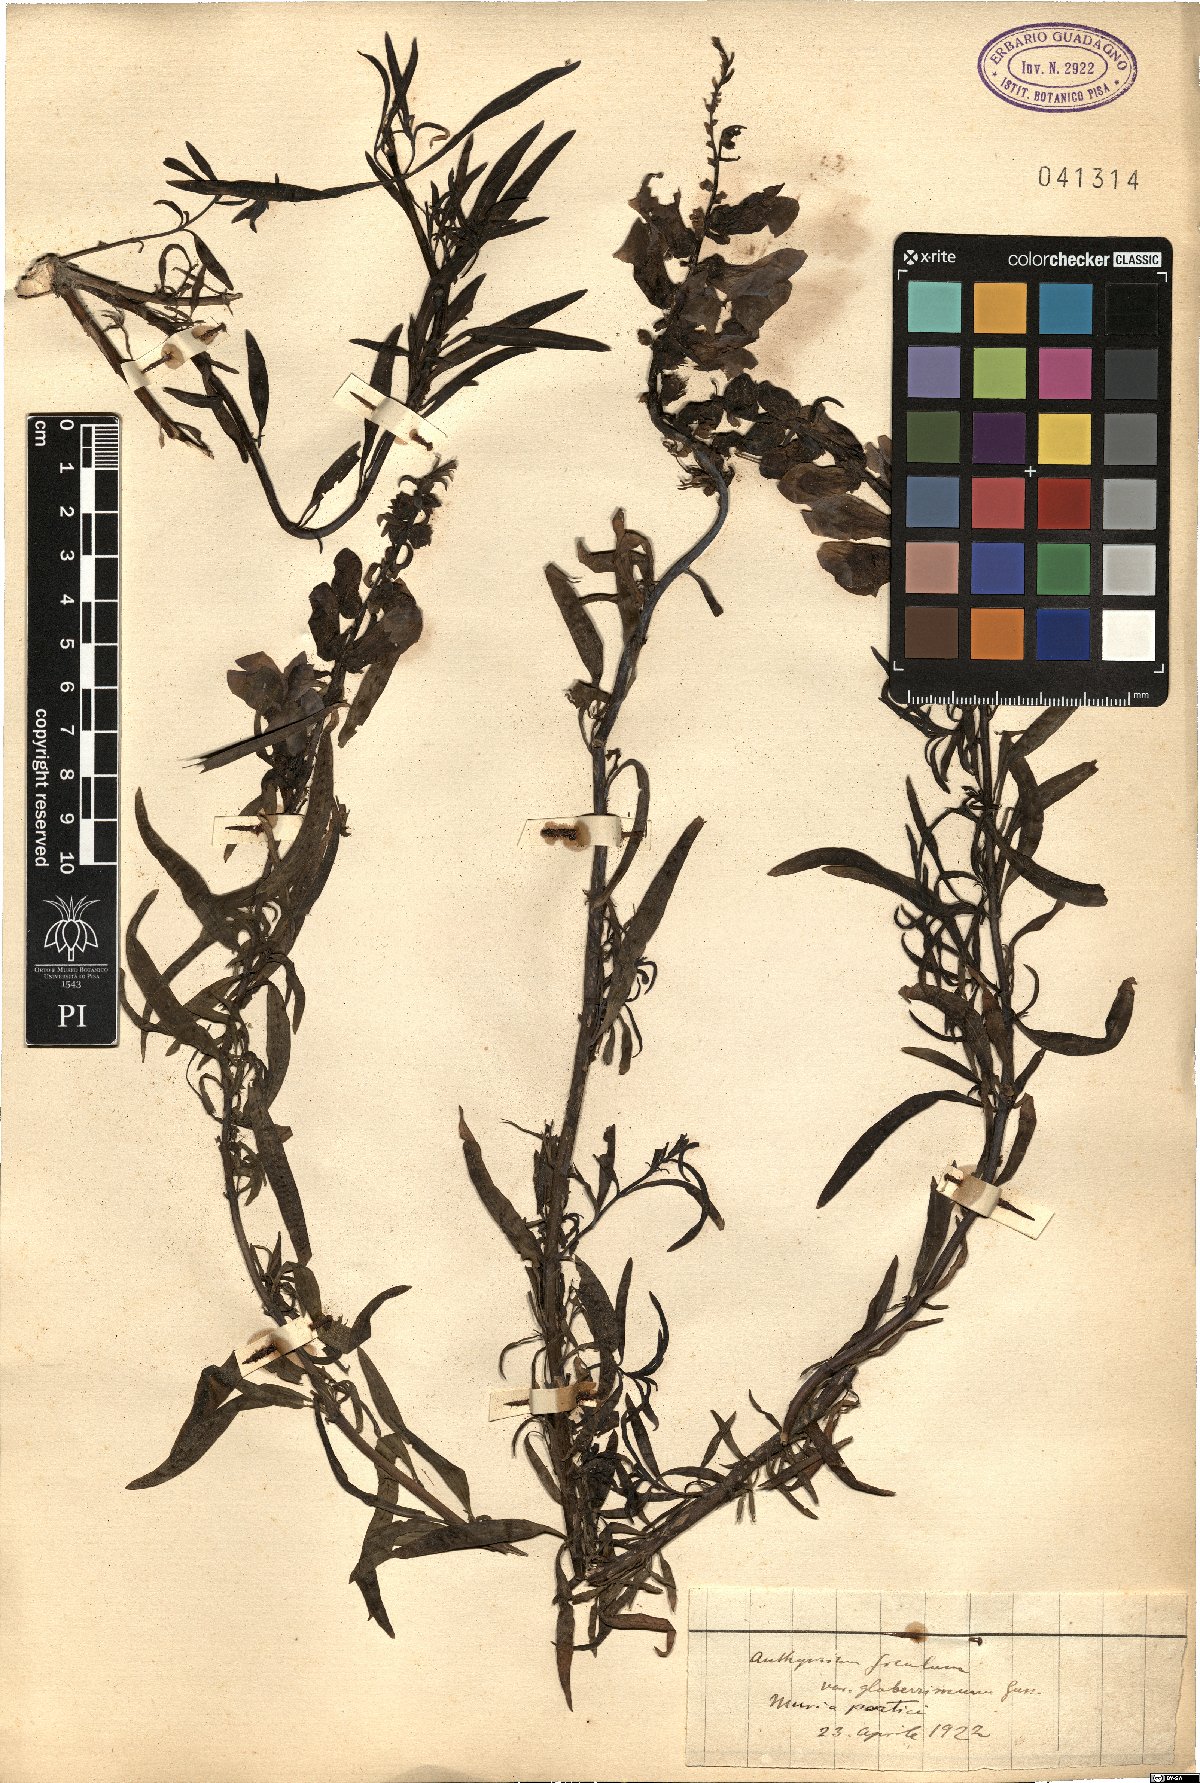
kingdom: Plantae
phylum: Tracheophyta
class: Magnoliopsida
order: Lamiales
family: Plantaginaceae
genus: Antirrhinum
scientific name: Antirrhinum siculum
